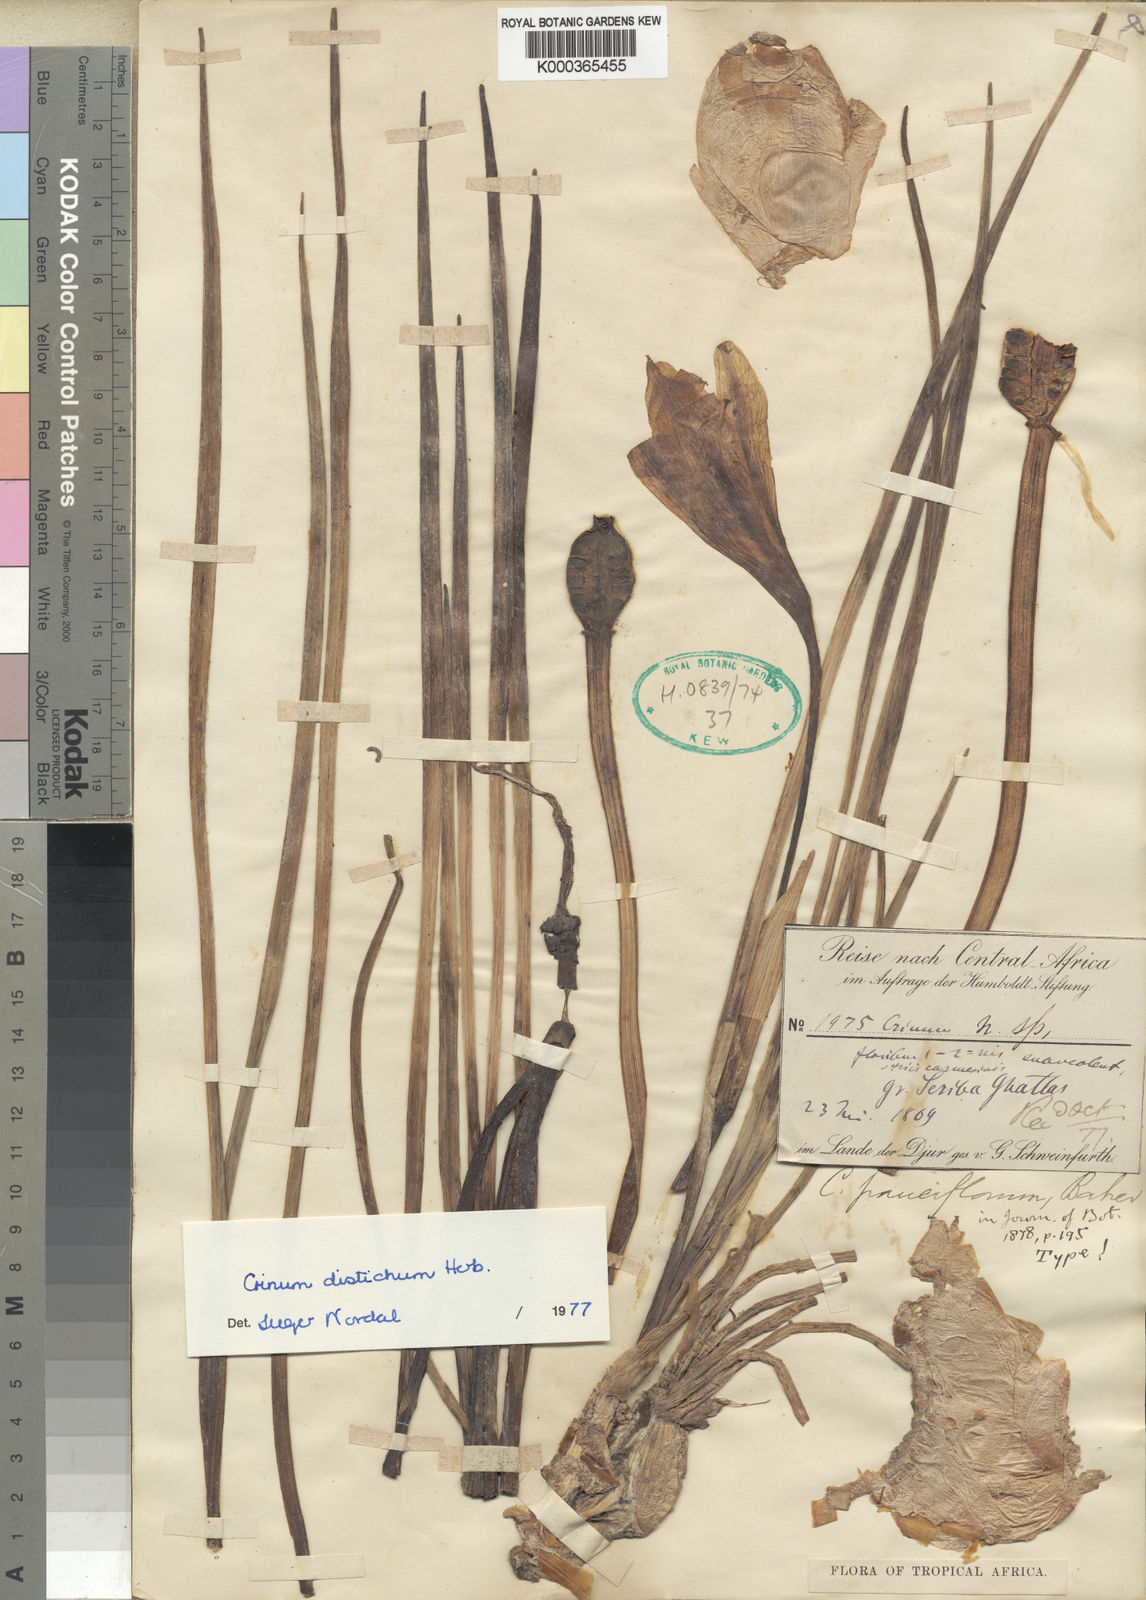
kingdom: Plantae
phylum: Tracheophyta
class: Liliopsida
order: Asparagales
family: Amaryllidaceae
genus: Crinum
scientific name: Crinum biflorum
